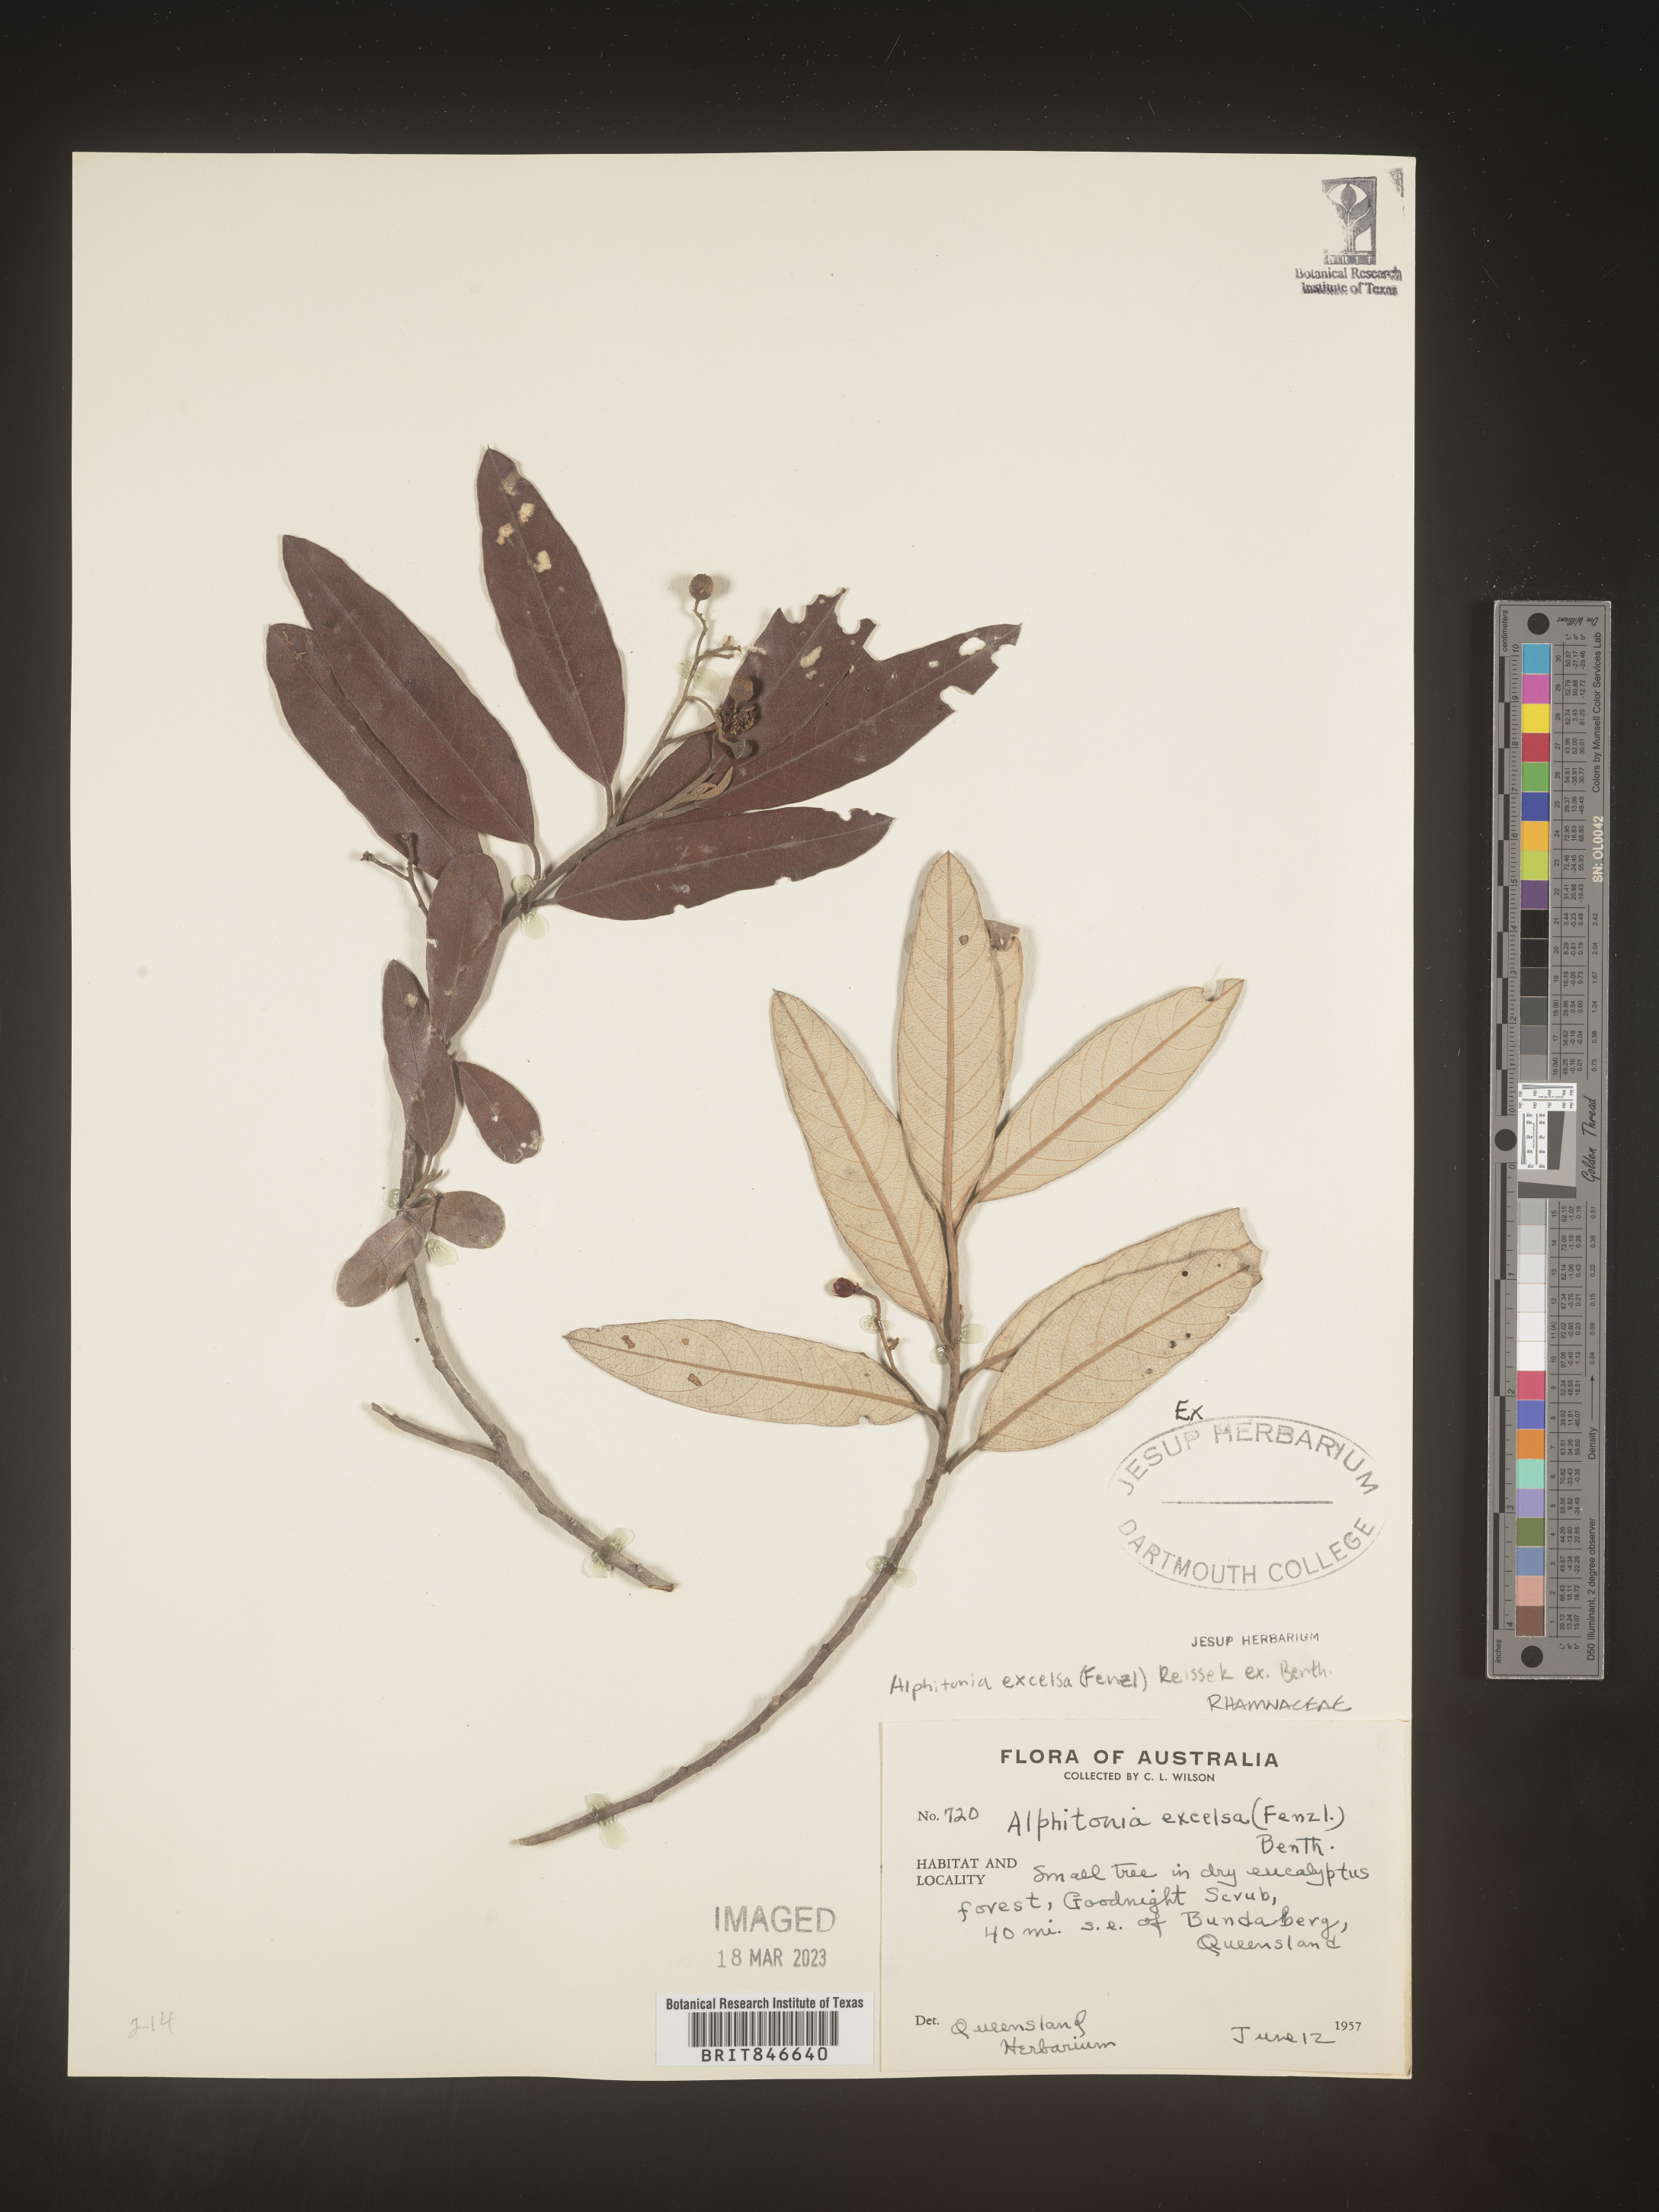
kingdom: Plantae
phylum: Tracheophyta
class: Magnoliopsida
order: Rosales
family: Rhamnaceae
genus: Alphitonia
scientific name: Alphitonia
